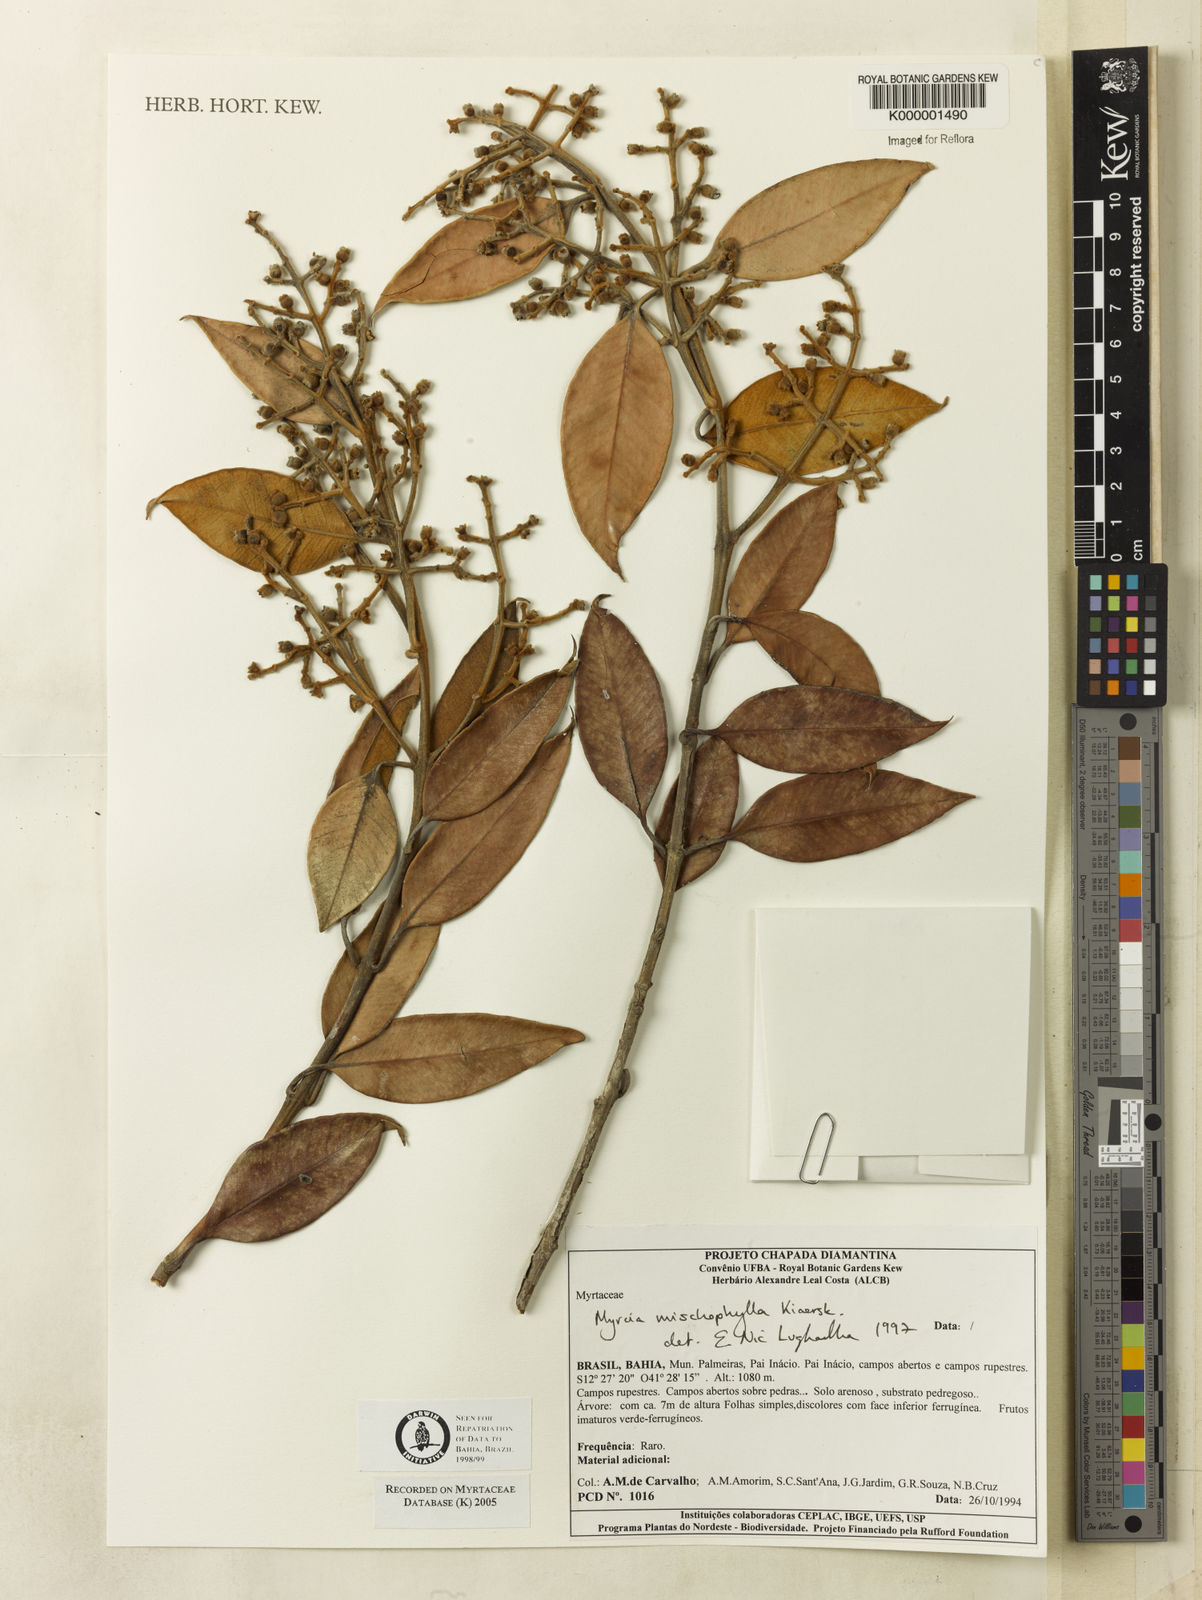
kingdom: Plantae
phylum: Tracheophyta
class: Magnoliopsida
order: Myrtales
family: Myrtaceae
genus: Myrcia
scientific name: Myrcia mischophylla
